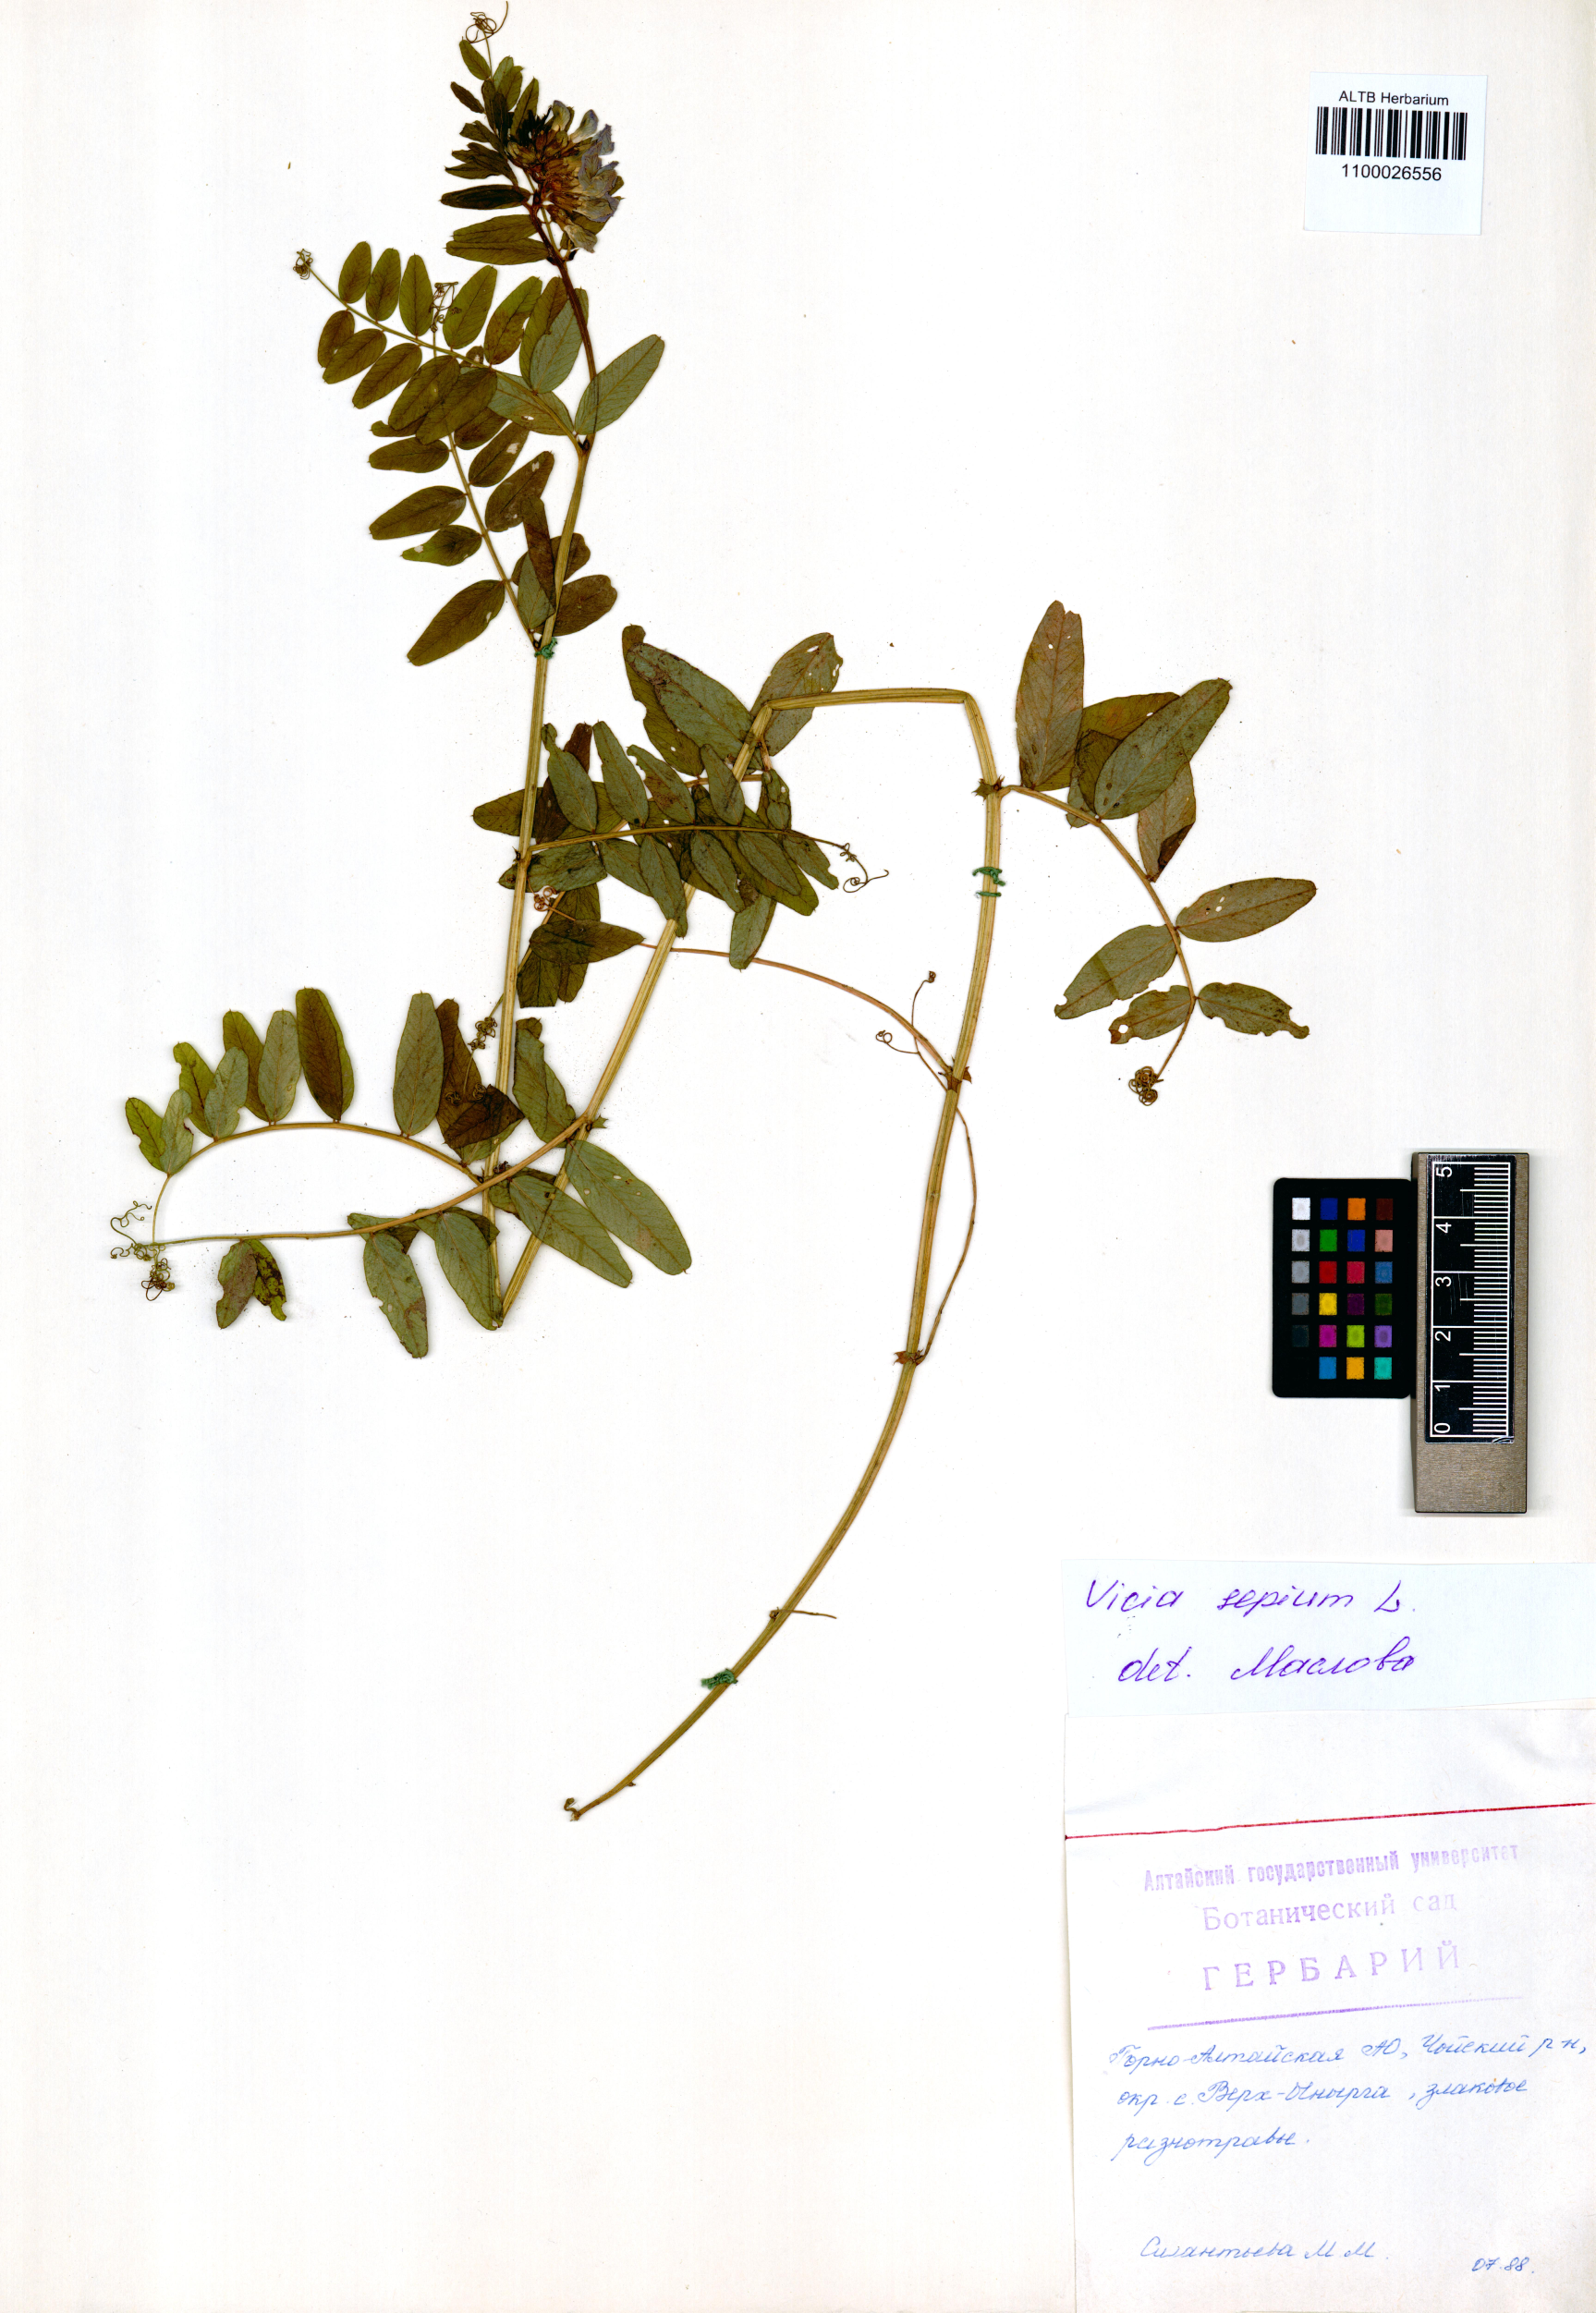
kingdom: Plantae
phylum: Tracheophyta
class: Magnoliopsida
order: Fabales
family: Fabaceae
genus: Vicia
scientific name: Vicia sepium
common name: Bush vetch
